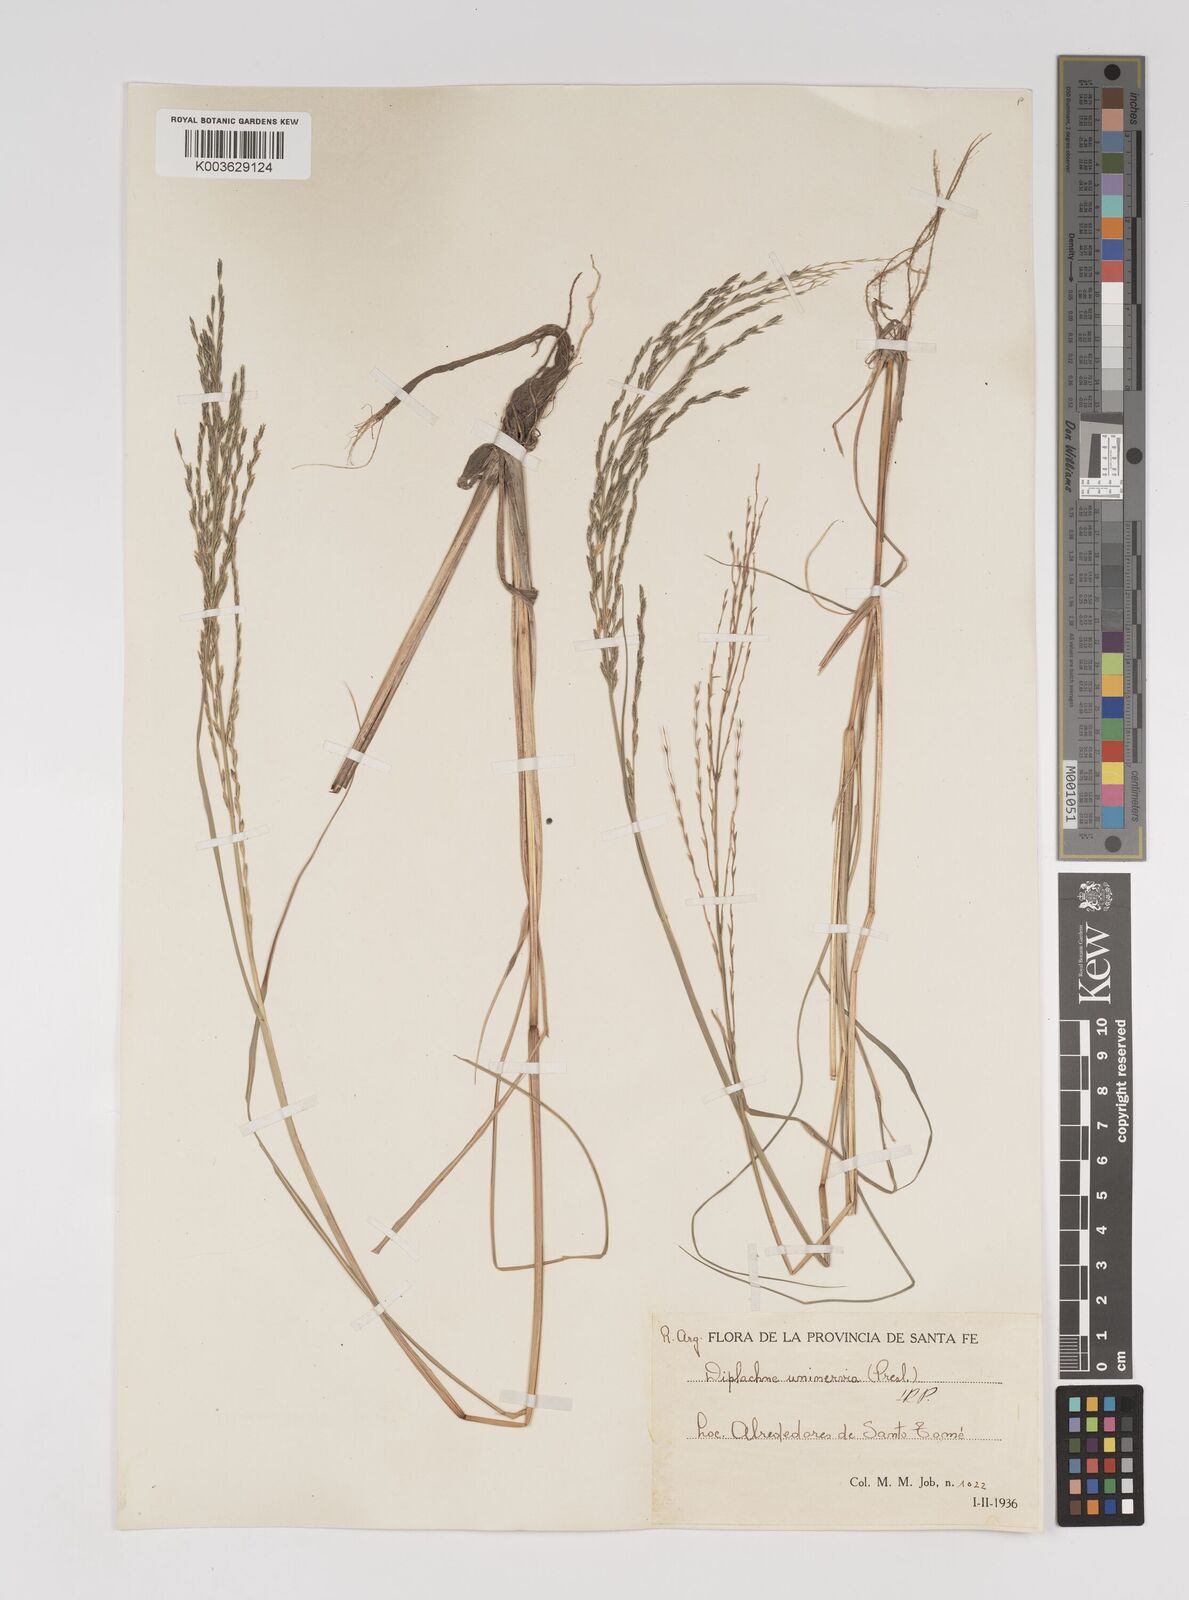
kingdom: Plantae
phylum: Tracheophyta
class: Liliopsida
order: Poales
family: Poaceae
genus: Diplachne
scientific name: Diplachne fusca
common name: Brown beetle grass
